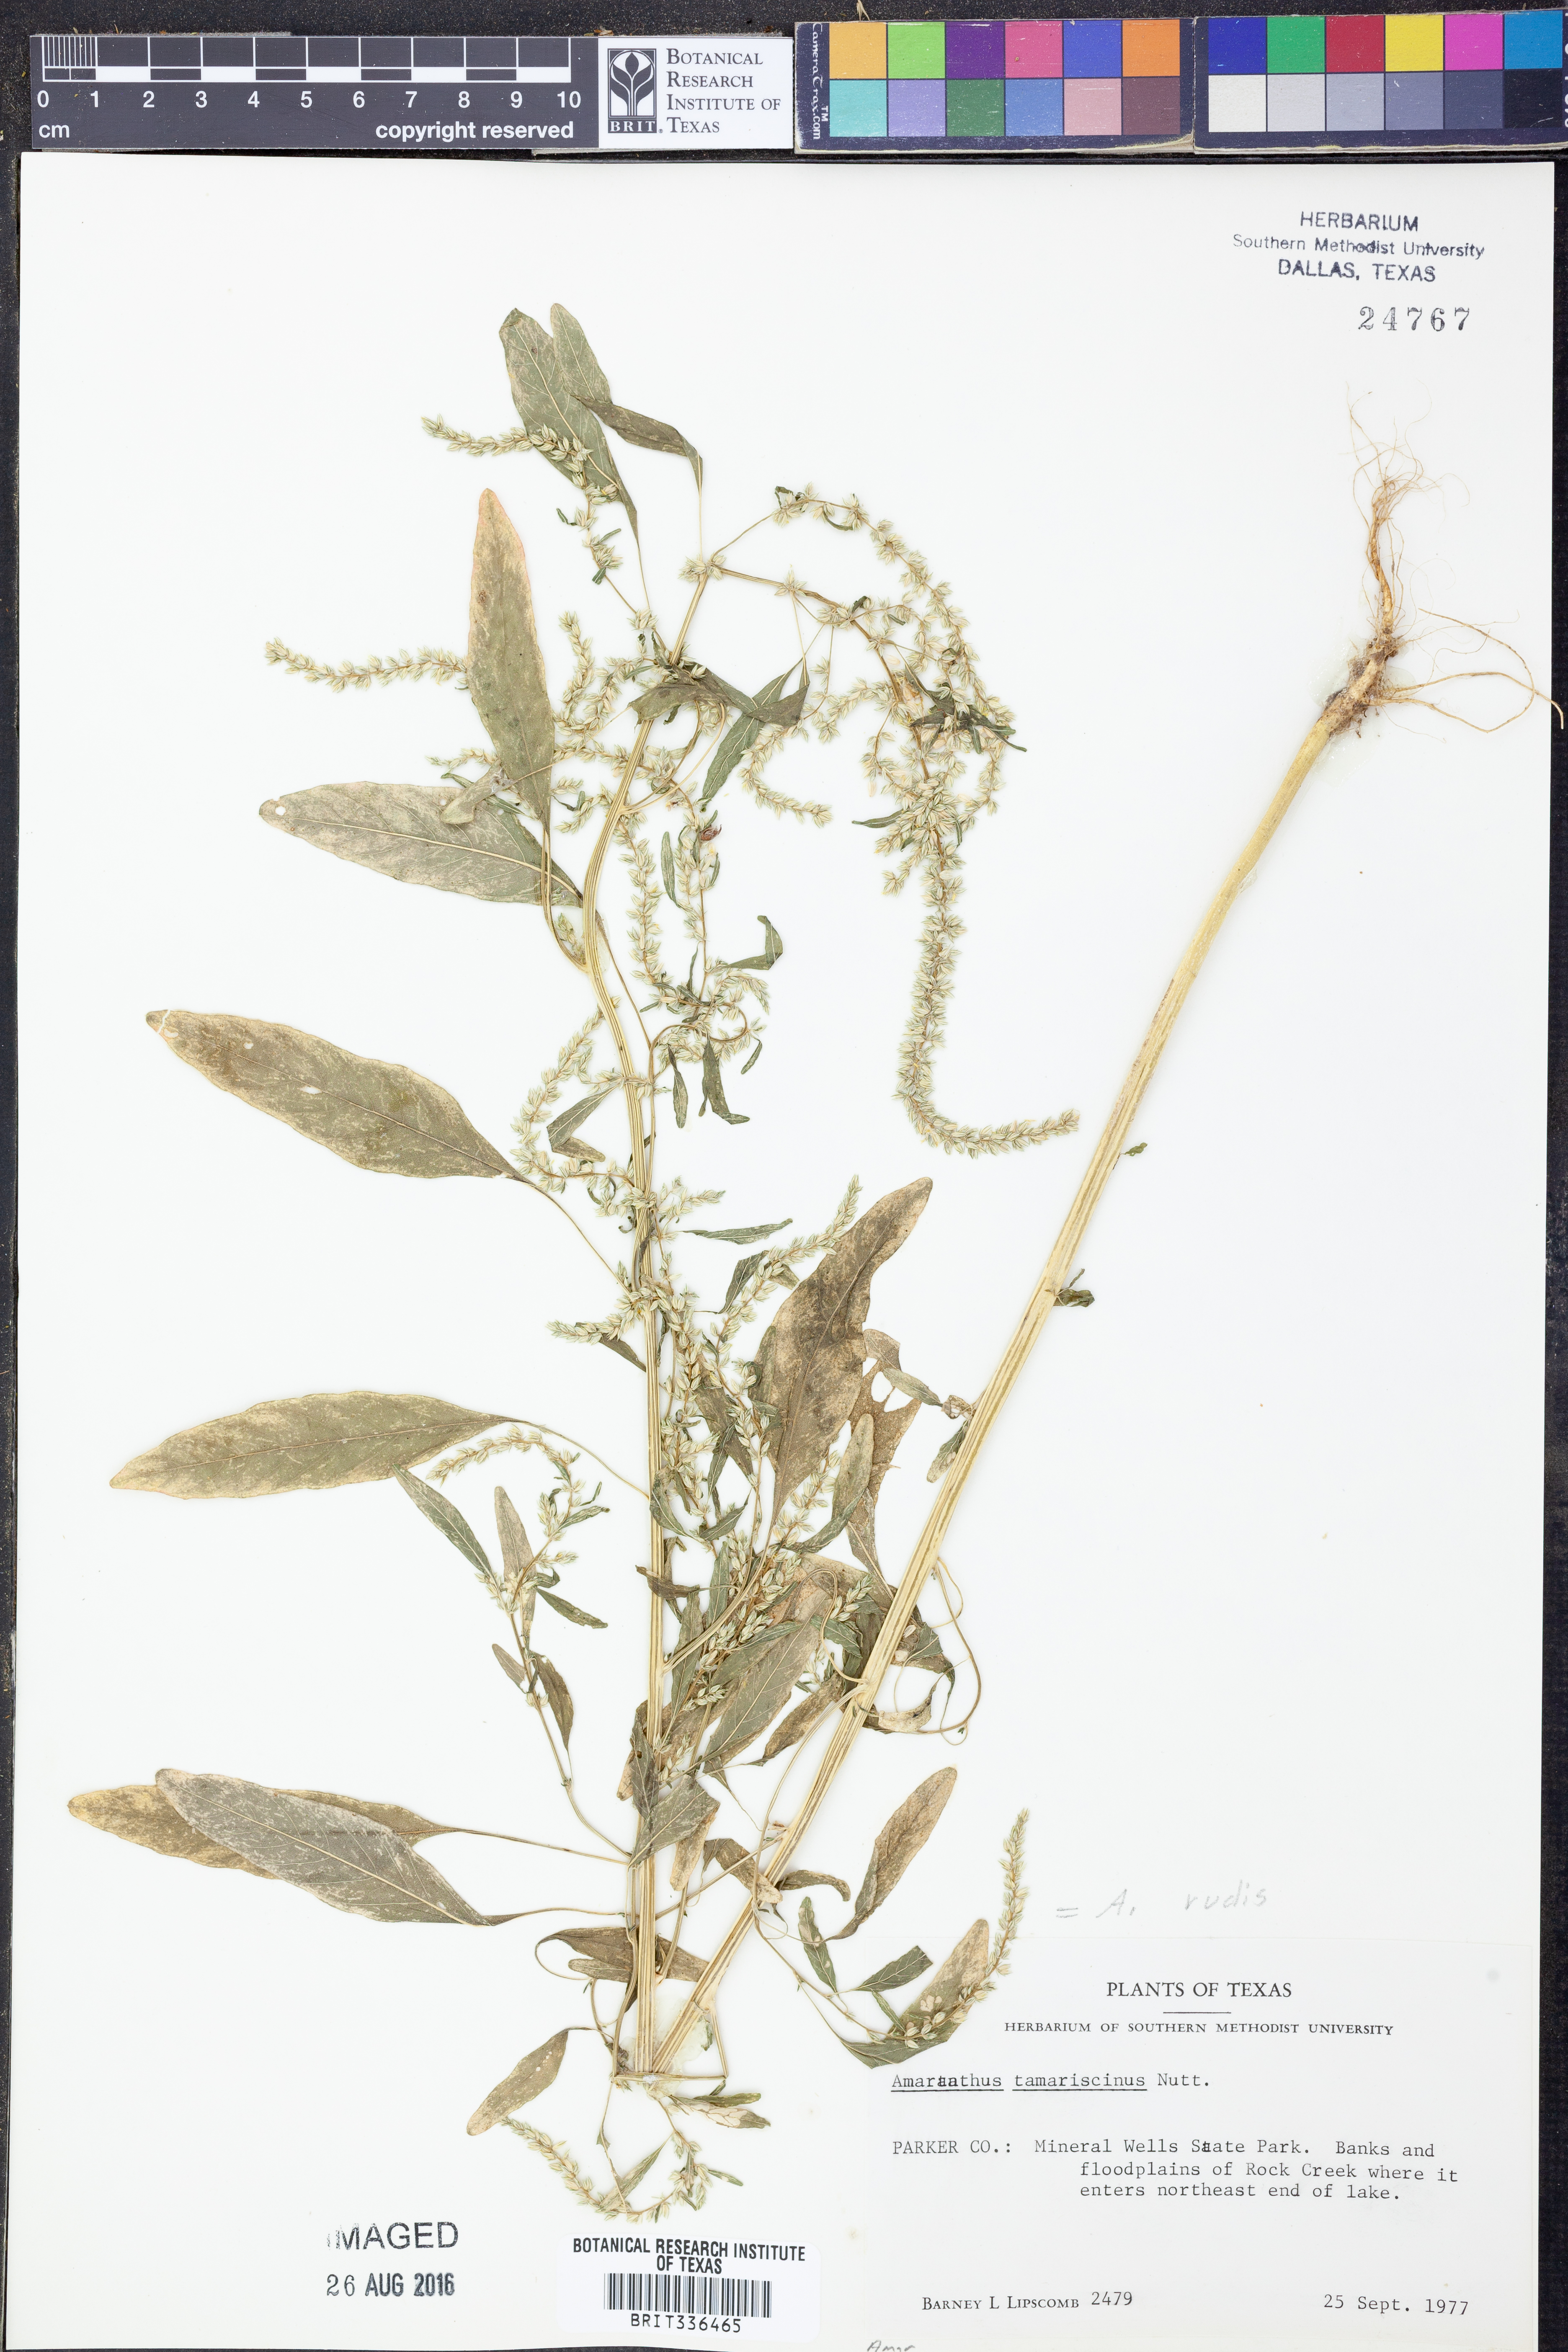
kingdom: Plantae
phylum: Tracheophyta
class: Magnoliopsida
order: Caryophyllales
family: Amaranthaceae
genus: Amaranthus
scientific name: Amaranthus tuberculatus
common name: Rough-fruit amaranth
